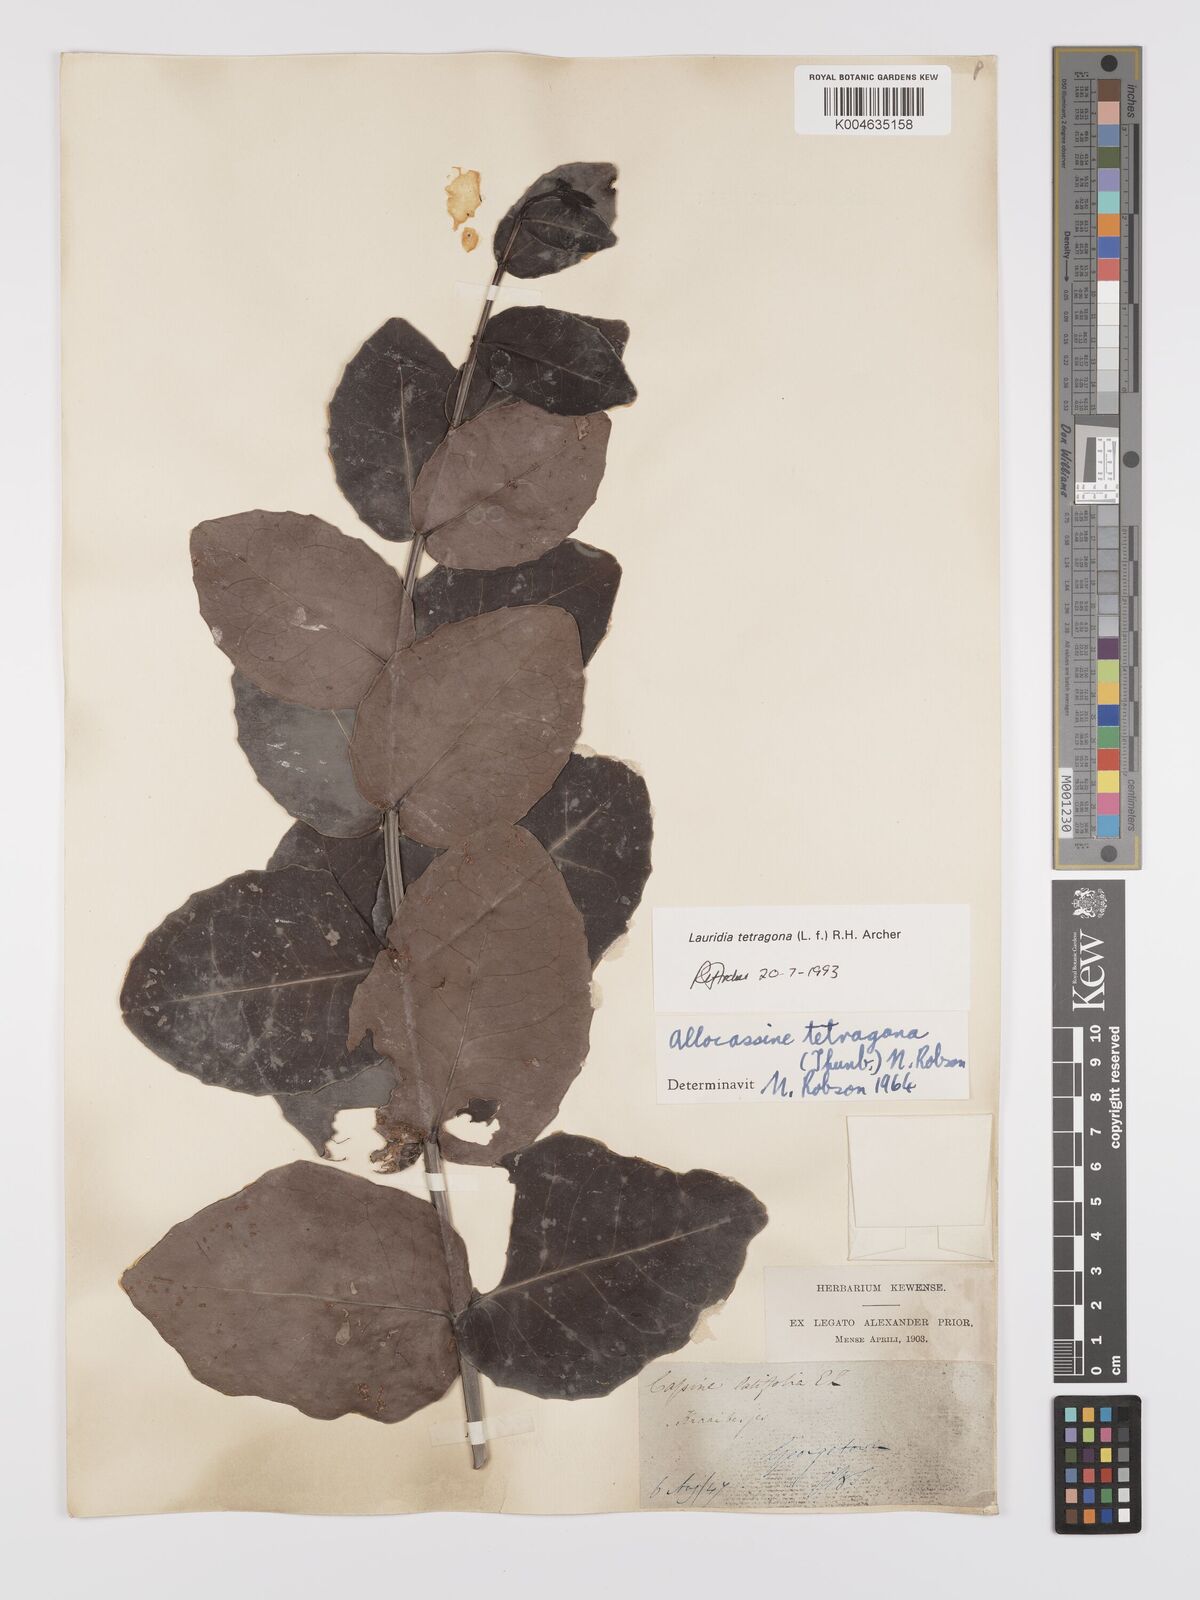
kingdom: Plantae
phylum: Tracheophyta
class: Magnoliopsida
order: Celastrales
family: Celastraceae
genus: Lauridia
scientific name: Lauridia tetragona
